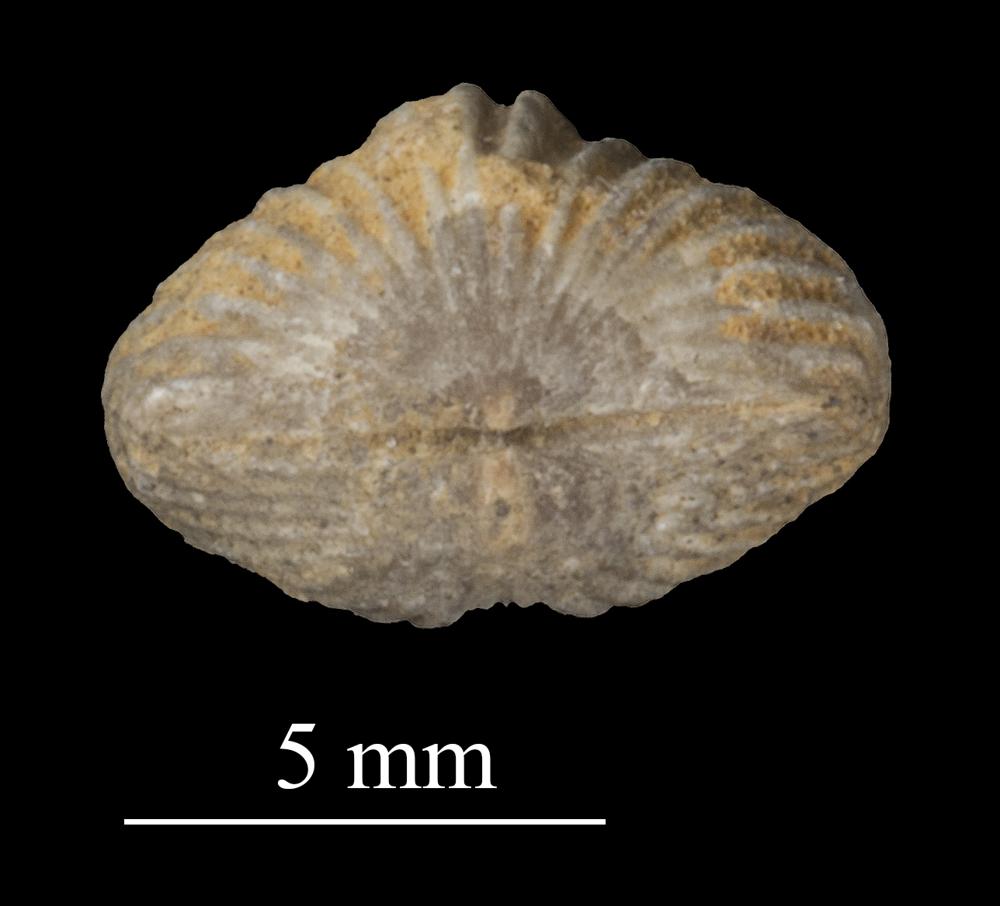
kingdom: Animalia
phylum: Brachiopoda
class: Rhynchonellata
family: Plectorthidae
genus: Platystrophia
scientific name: Platystrophia dentata
